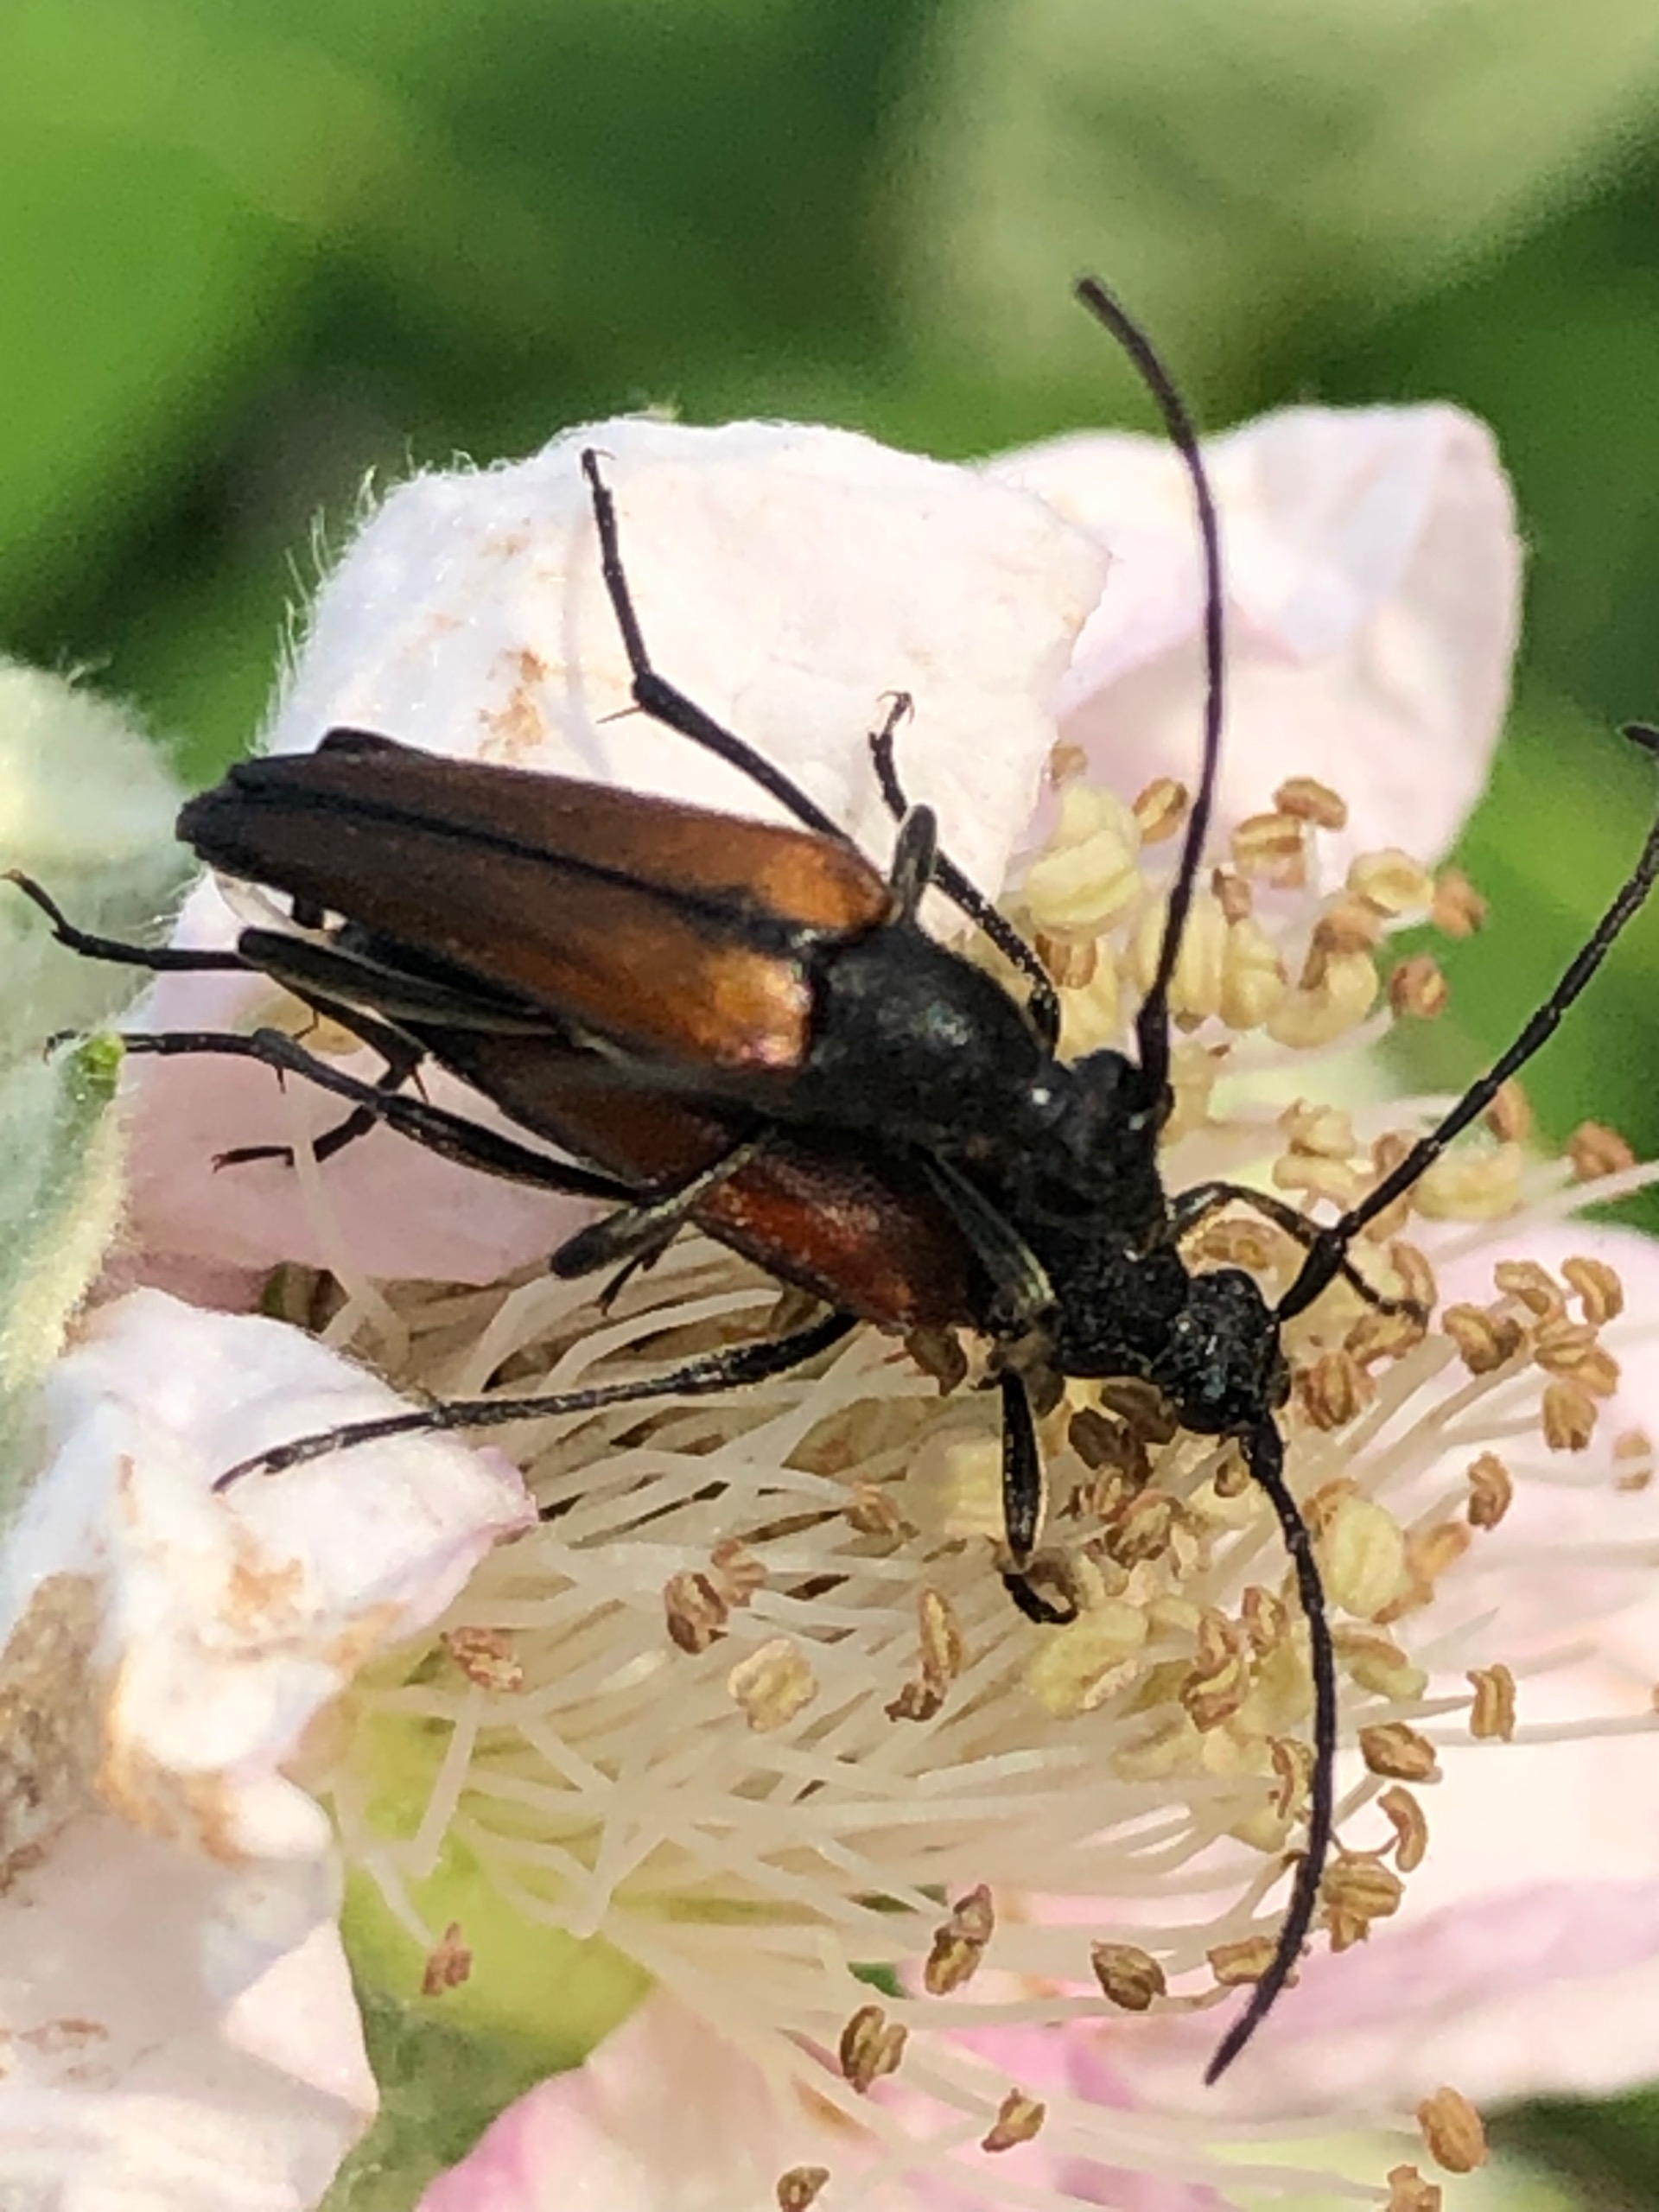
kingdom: Animalia
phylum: Arthropoda
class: Insecta
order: Coleoptera
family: Cerambycidae
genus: Stenurella
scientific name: Stenurella melanura
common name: Sortsømmet blomsterbuk
